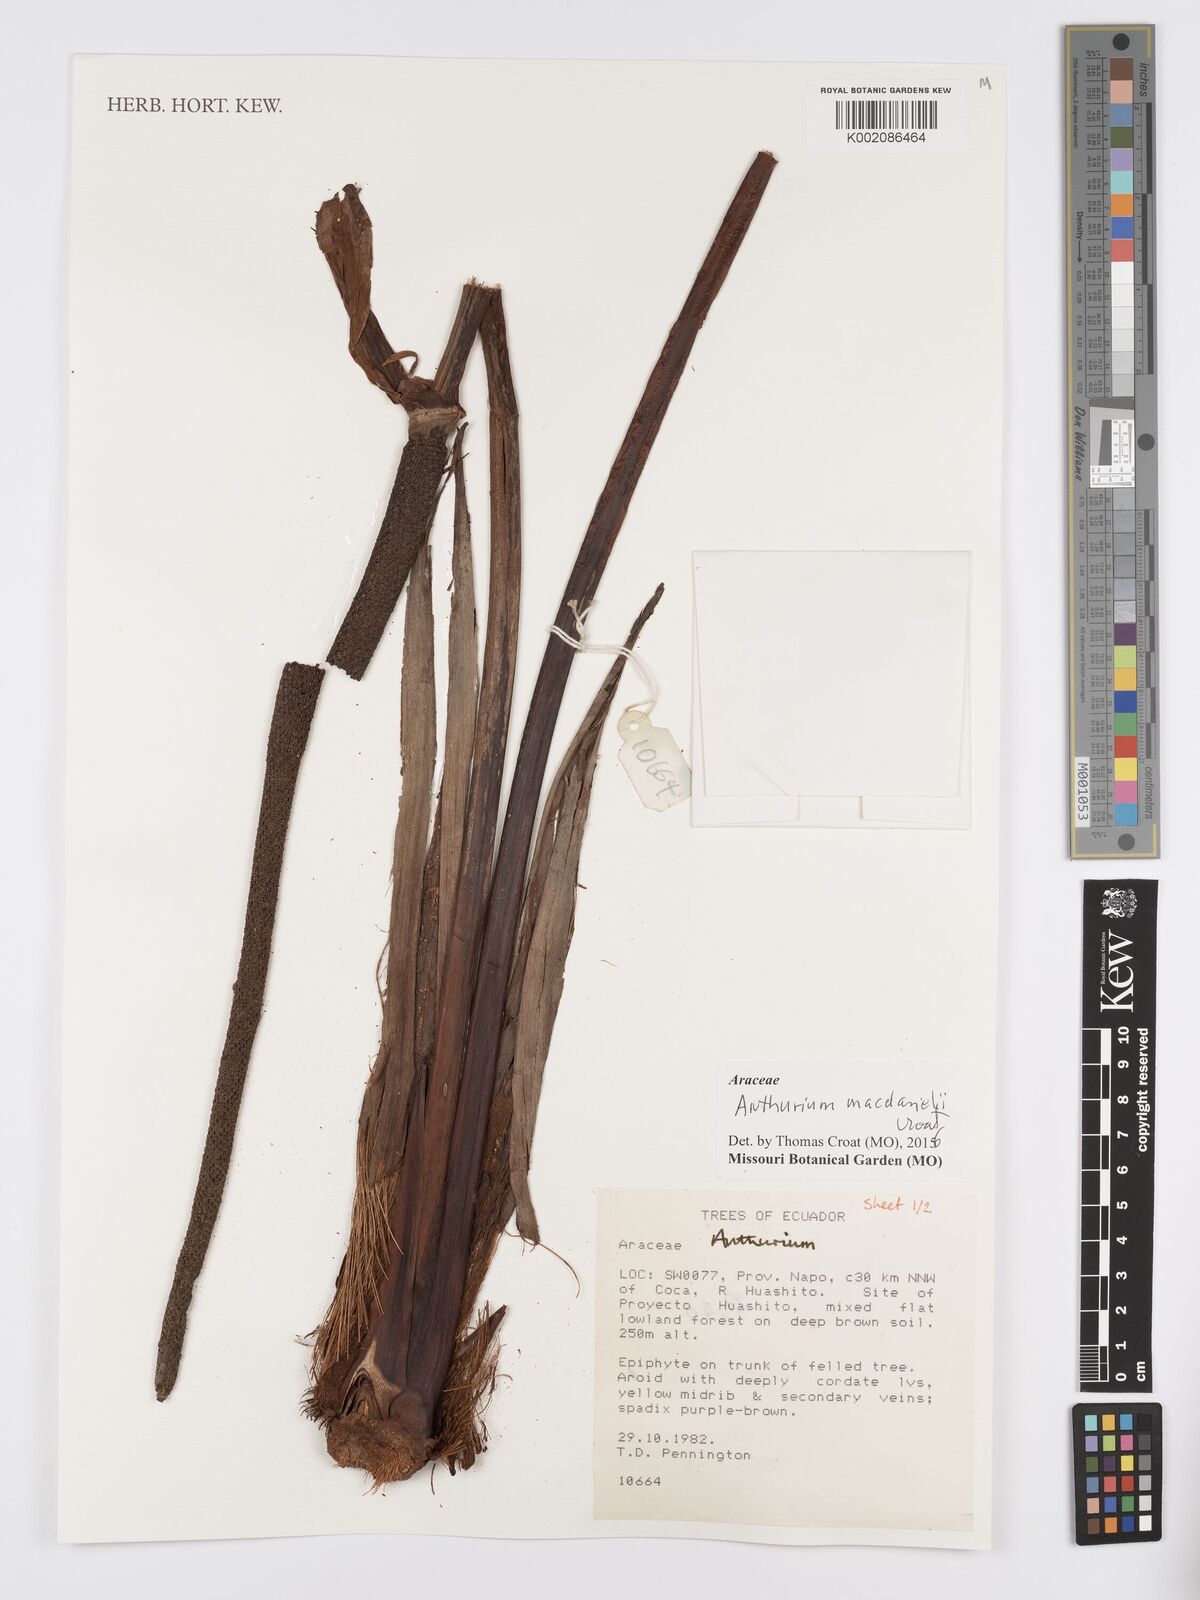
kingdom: Plantae
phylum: Tracheophyta
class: Liliopsida
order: Alismatales
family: Araceae
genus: Anthurium
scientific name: Anthurium macdanielii
